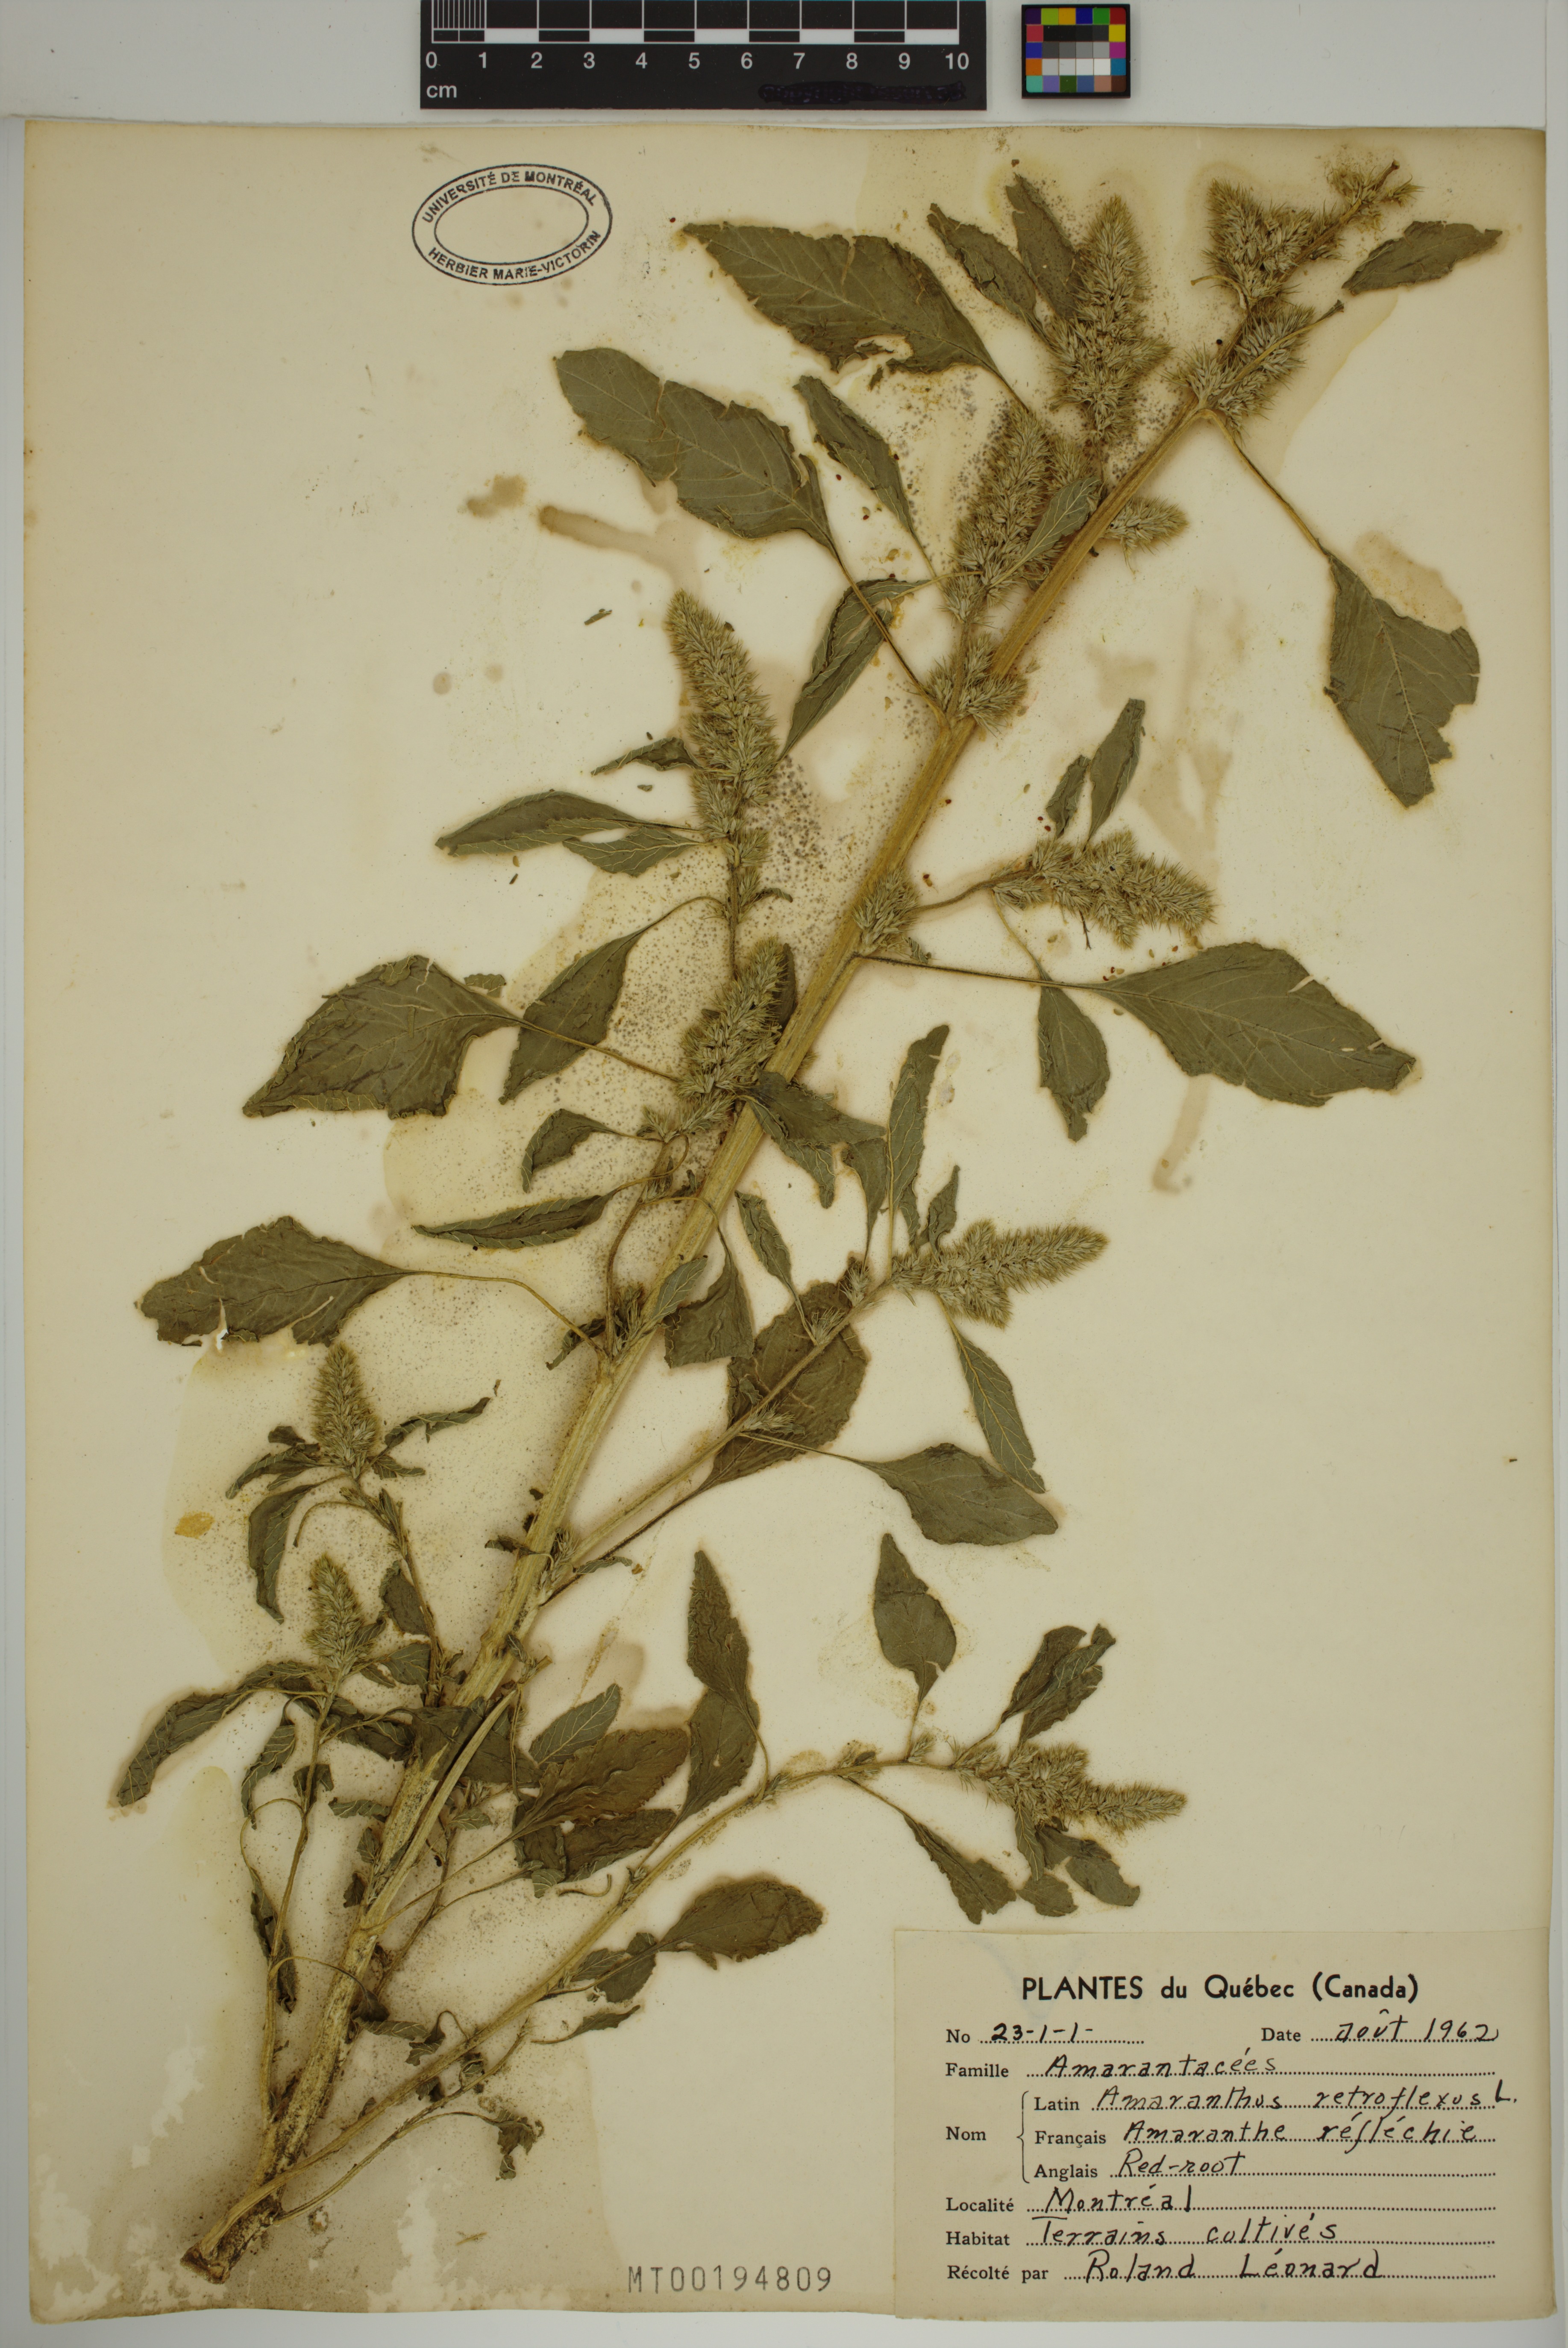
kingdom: Plantae
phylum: Tracheophyta
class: Magnoliopsida
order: Caryophyllales
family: Amaranthaceae
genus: Amaranthus
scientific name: Amaranthus retroflexus
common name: Redroot amaranth
